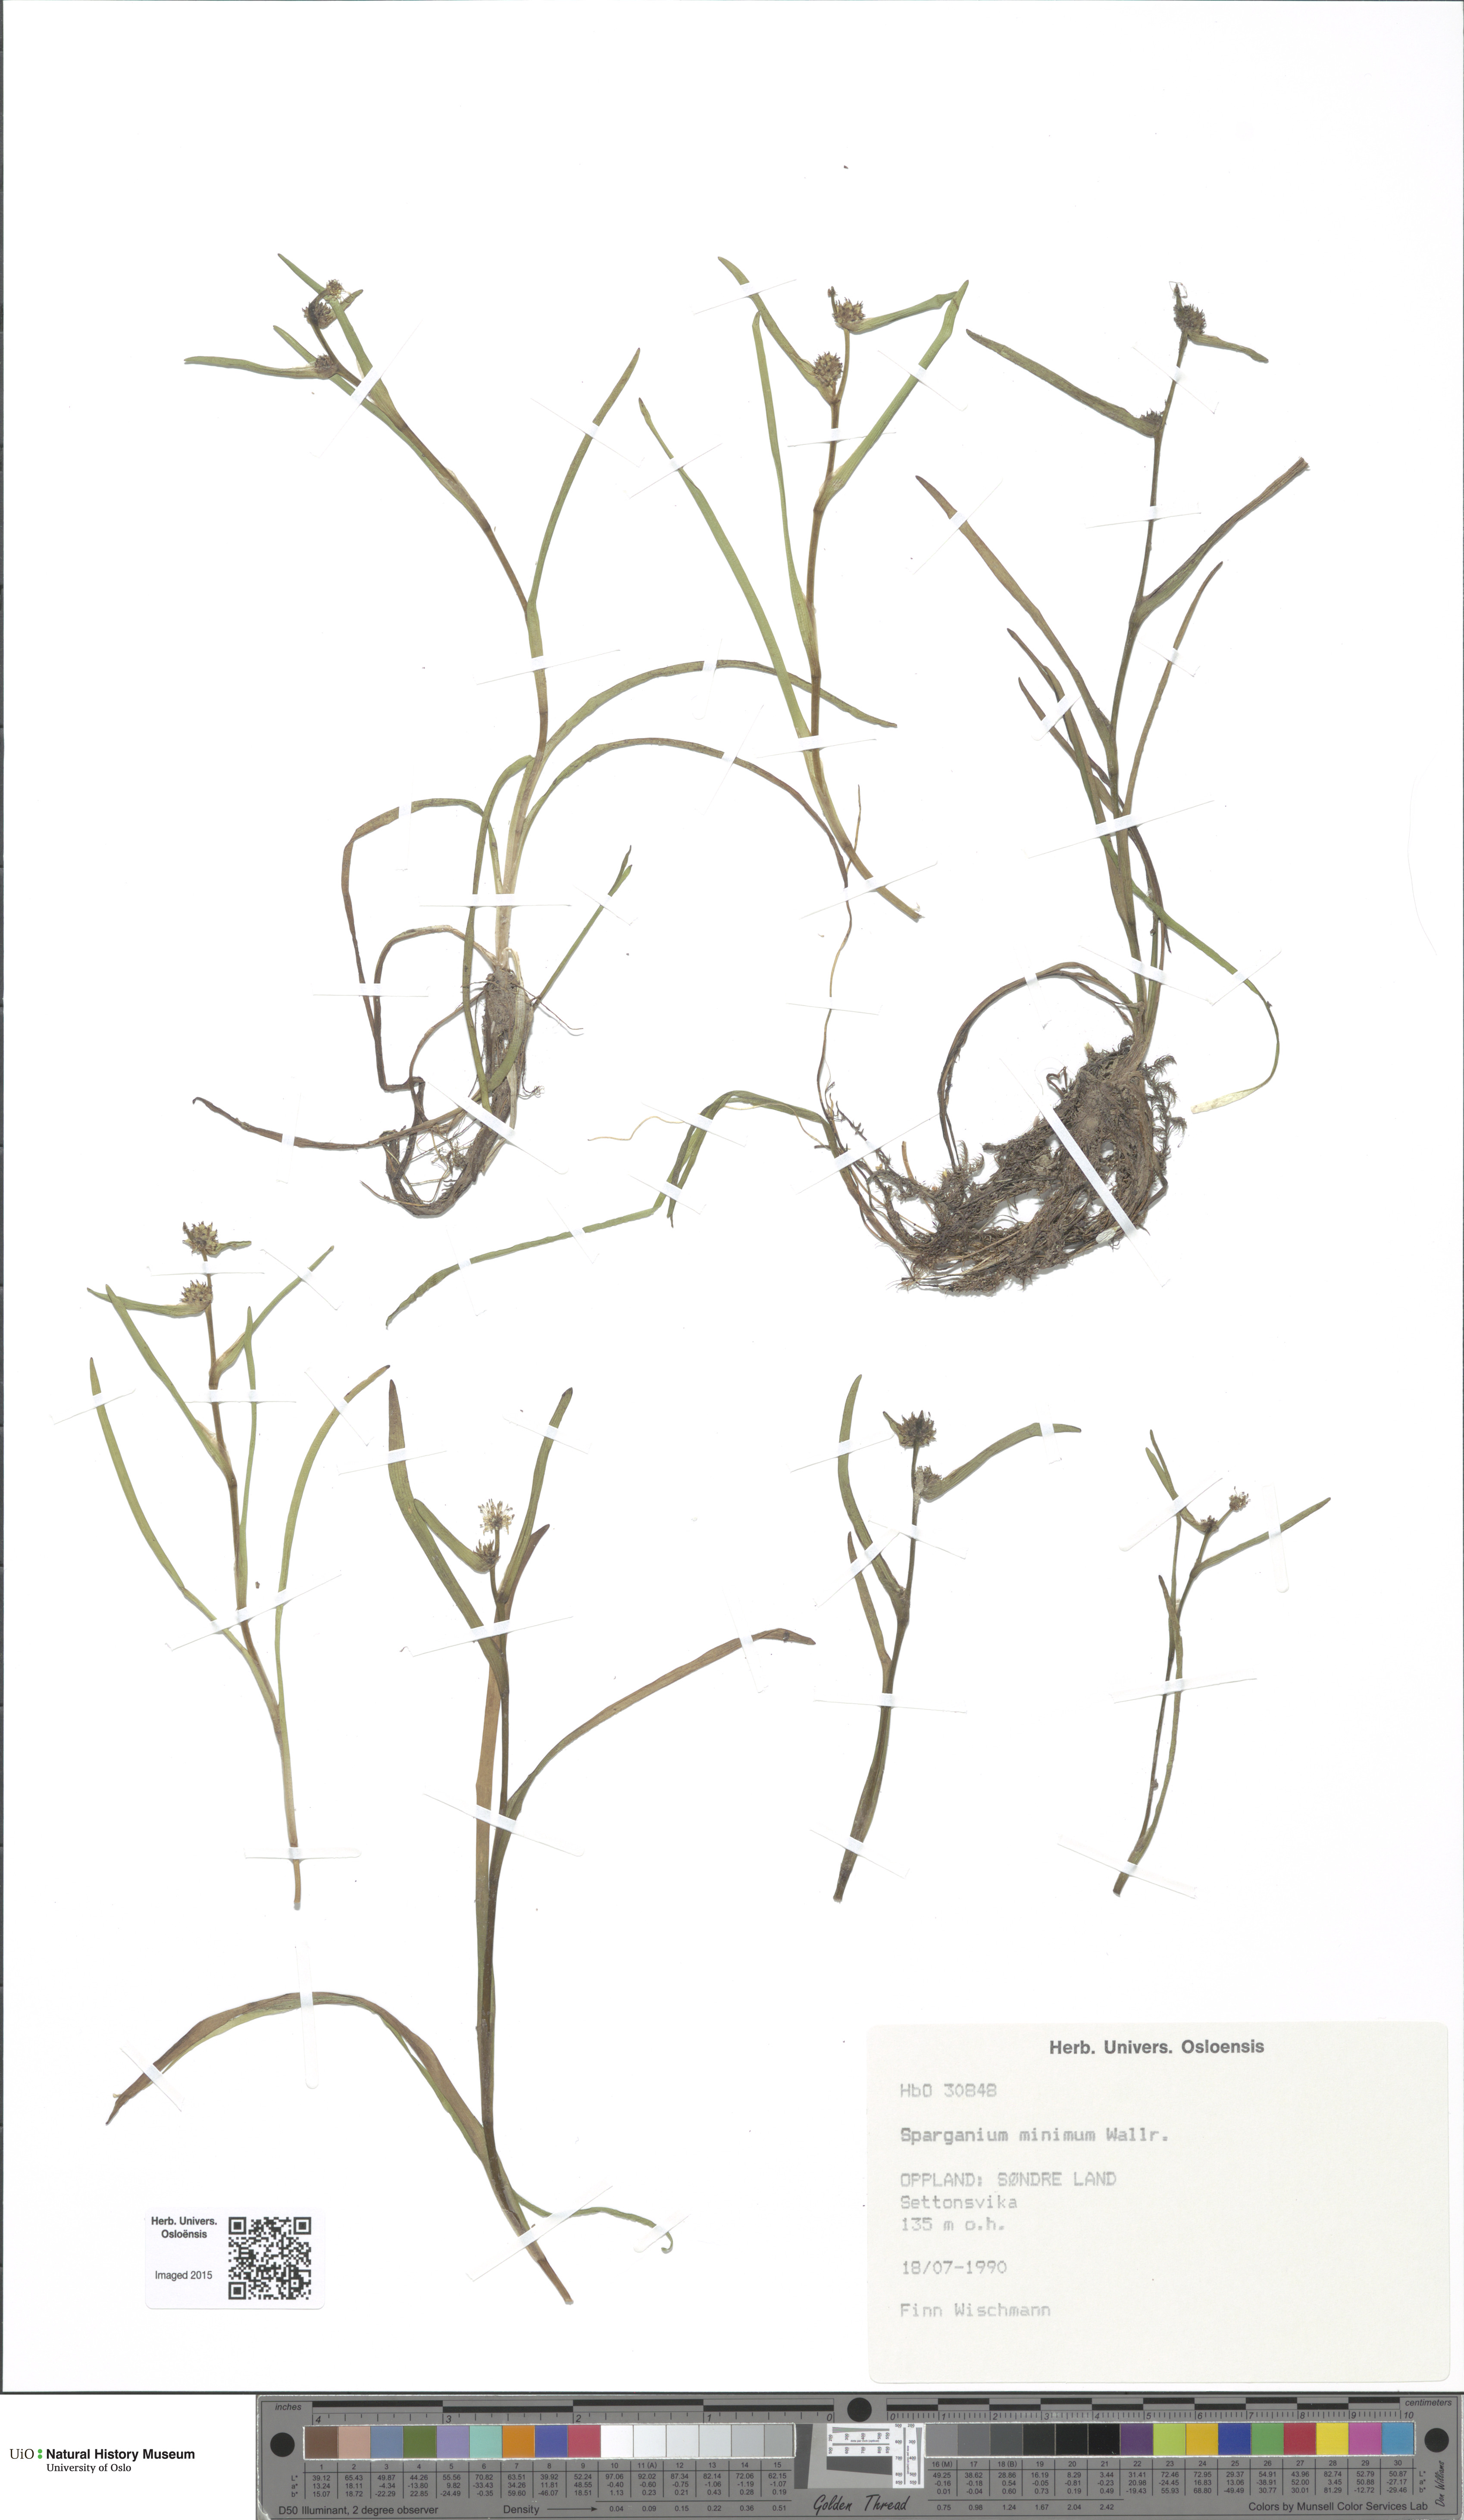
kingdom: Plantae
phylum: Tracheophyta
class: Liliopsida
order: Poales
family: Typhaceae
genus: Sparganium
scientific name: Sparganium natans
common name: Least bur-reed
